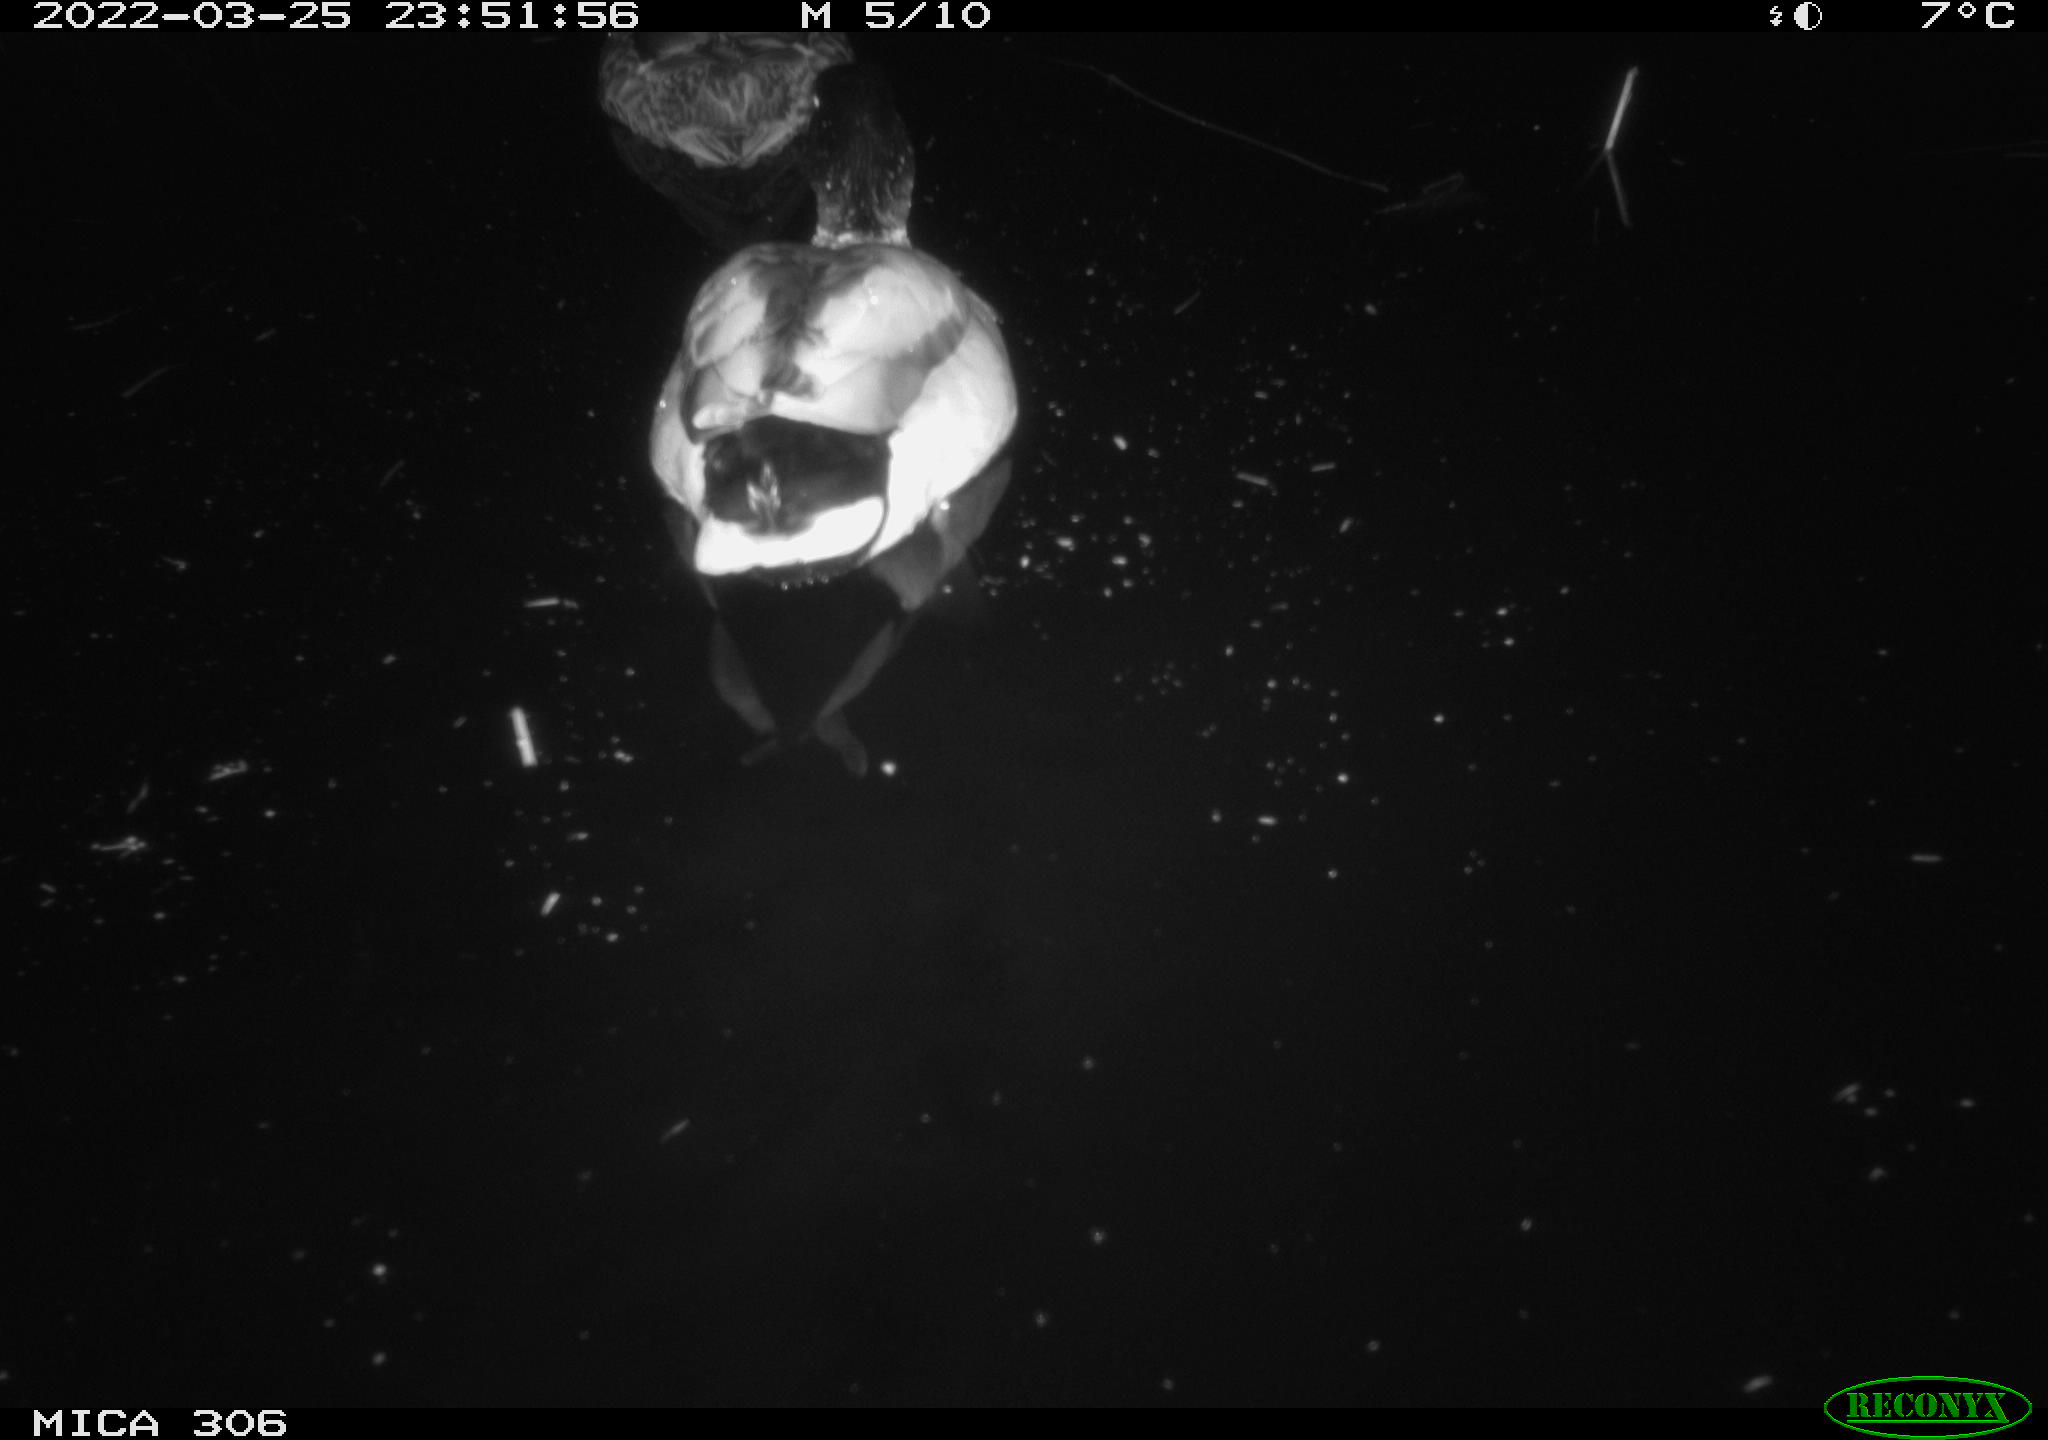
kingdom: Animalia
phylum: Chordata
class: Aves
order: Anseriformes
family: Anatidae
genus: Anas
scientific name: Anas
